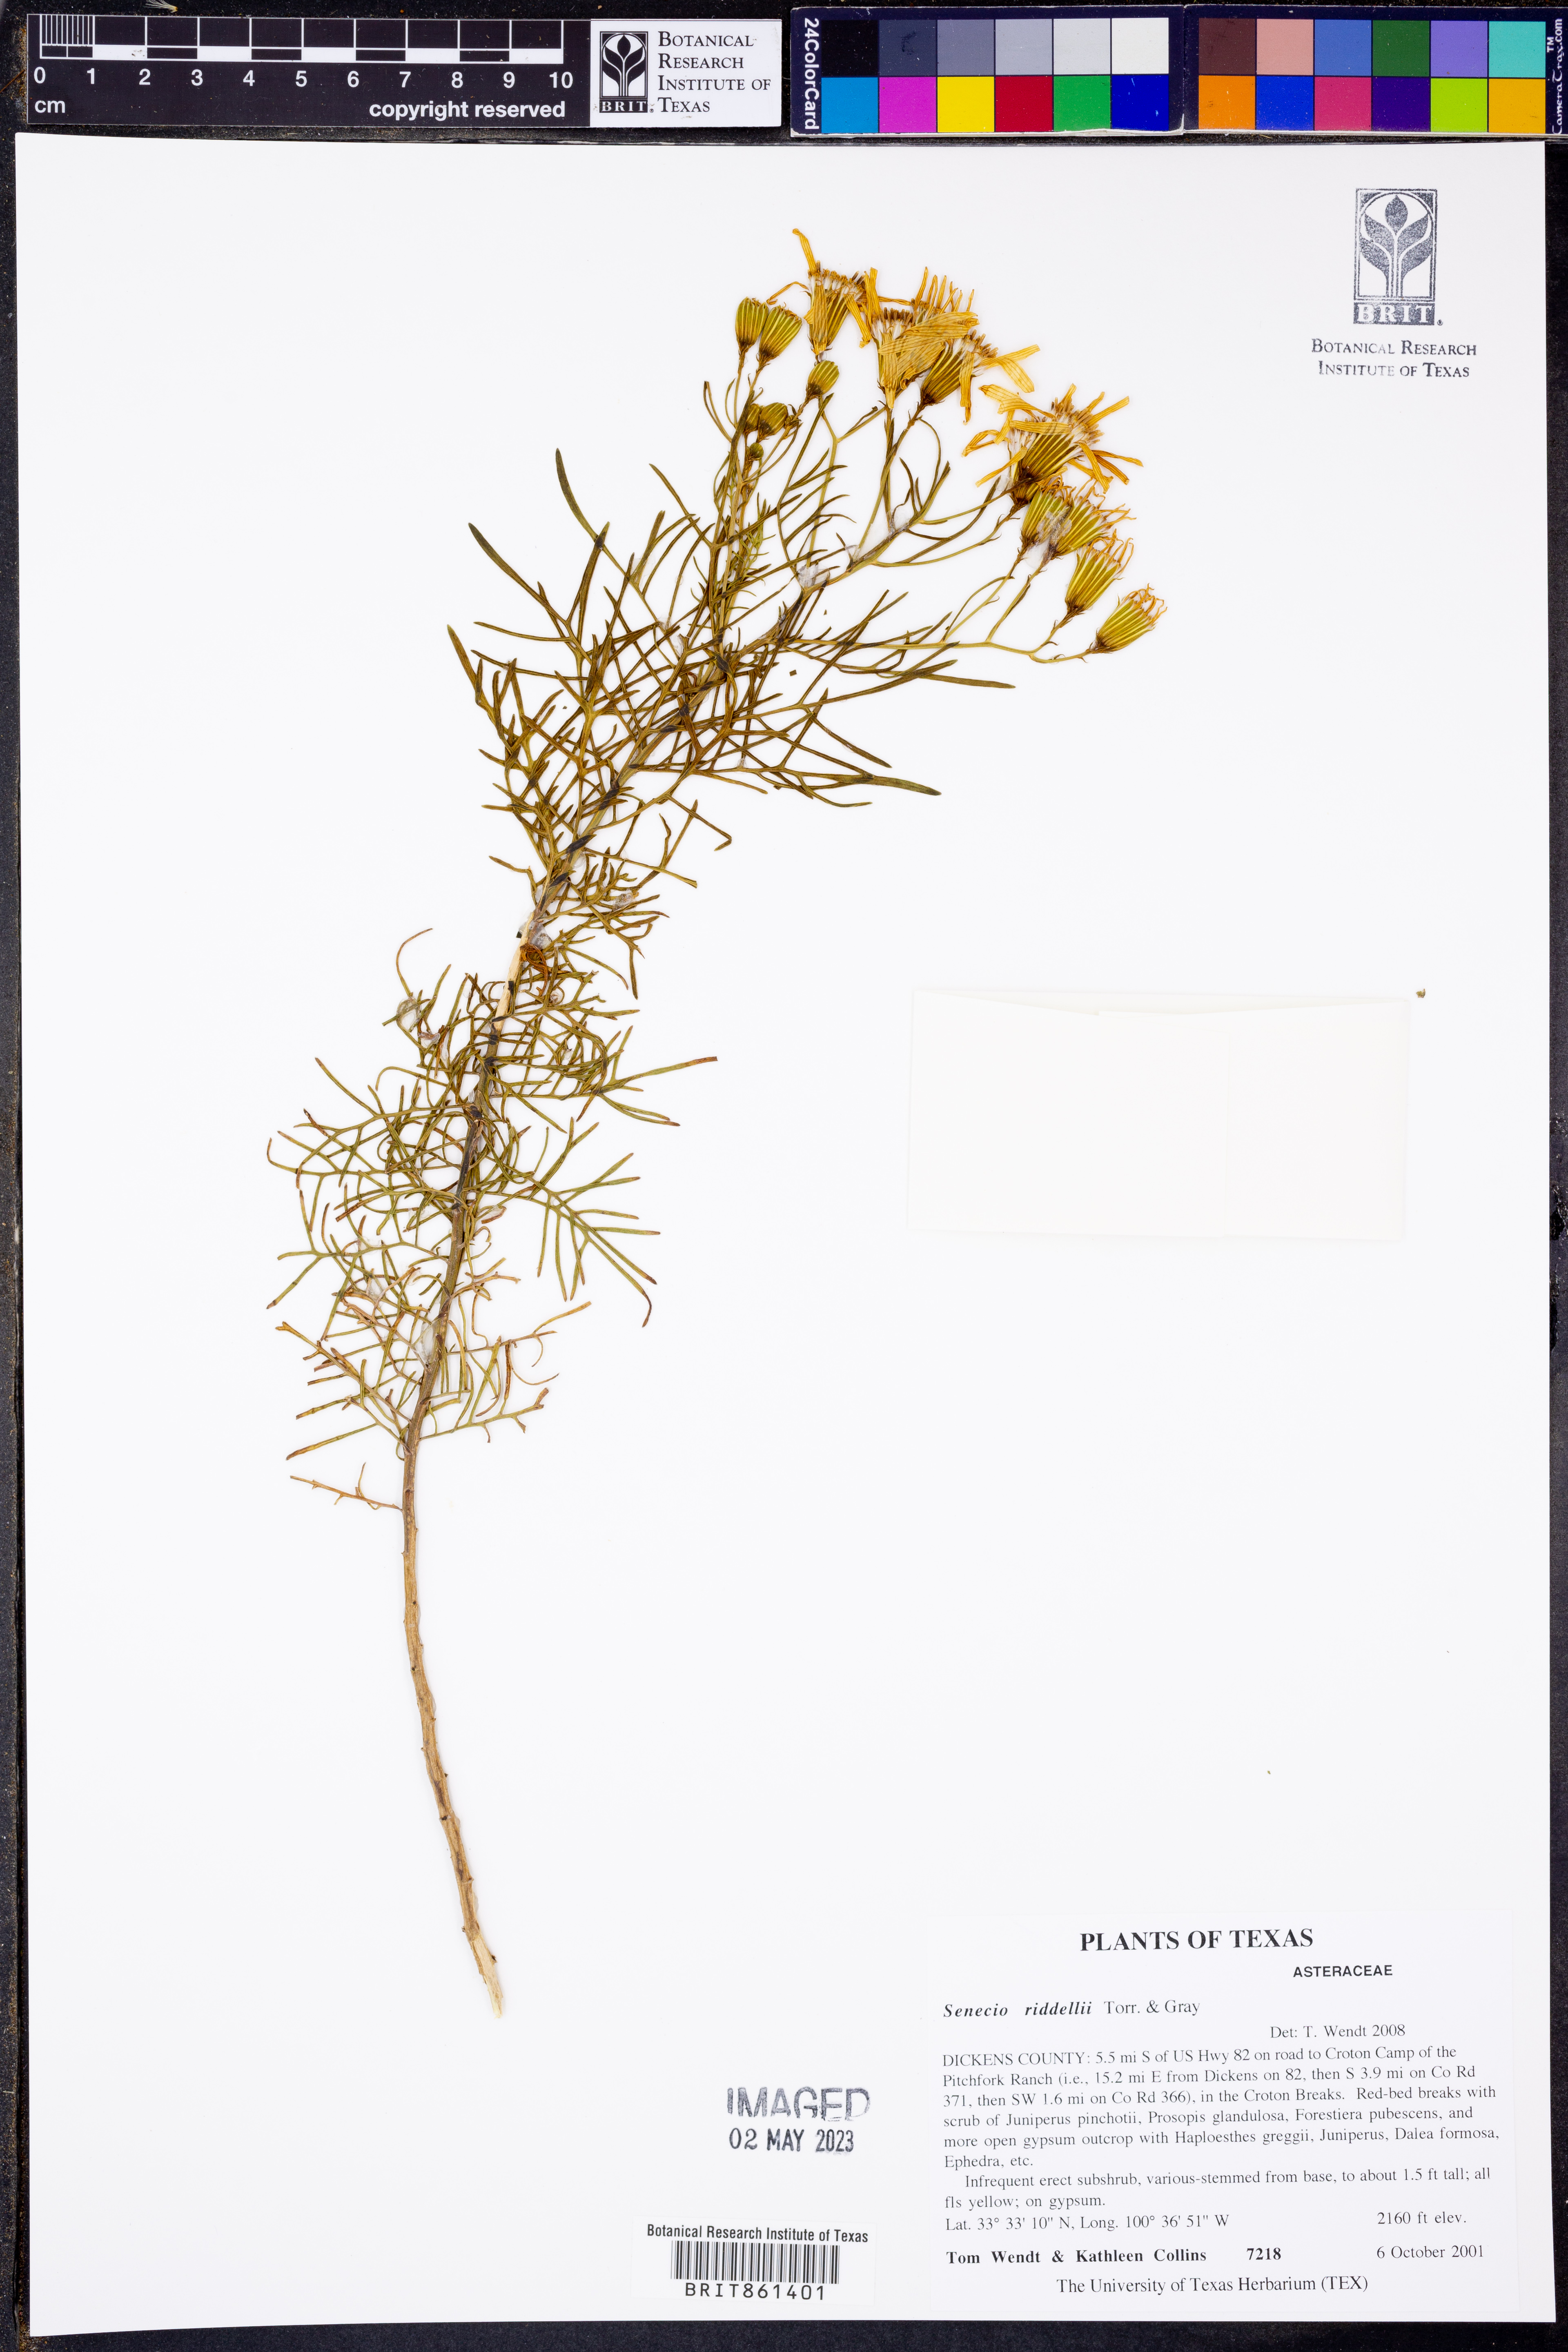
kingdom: Plantae
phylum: Tracheophyta
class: Magnoliopsida
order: Asterales
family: Asteraceae
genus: Senecio
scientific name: Senecio riddellii
